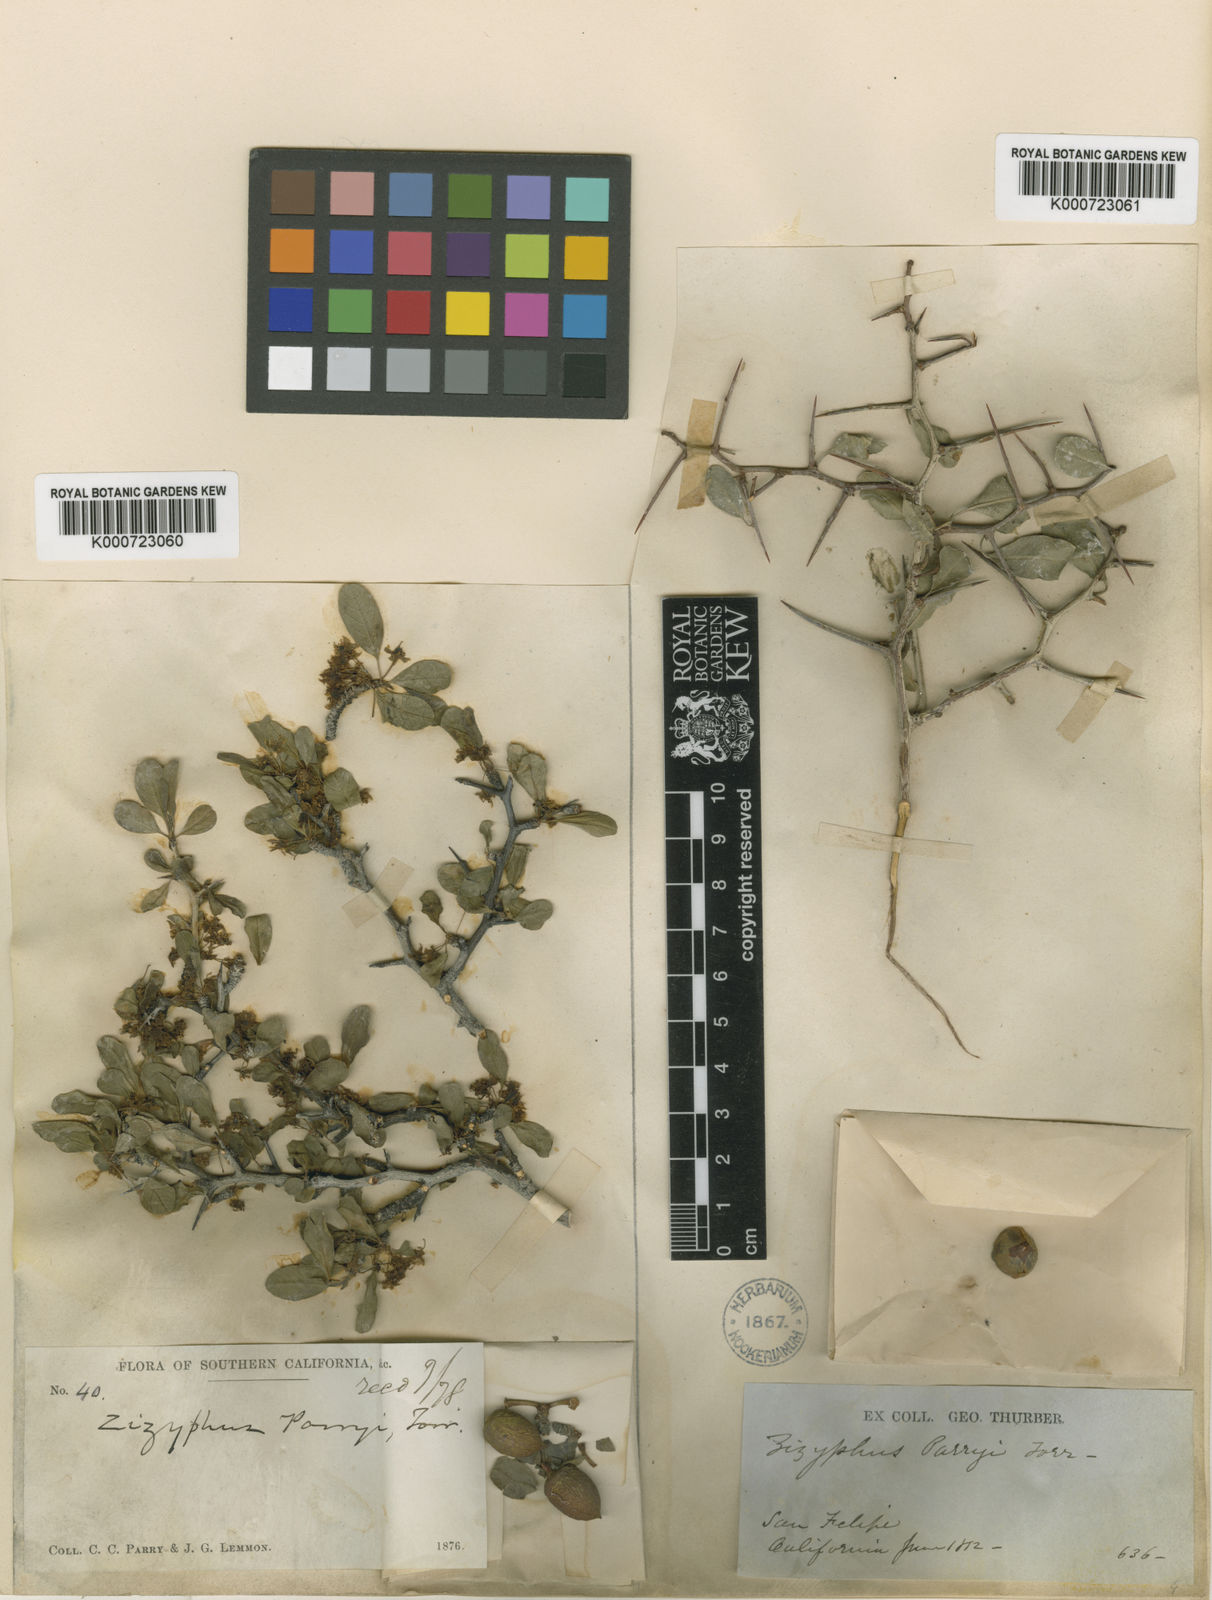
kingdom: Plantae
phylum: Tracheophyta
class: Magnoliopsida
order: Rosales
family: Rhamnaceae
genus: Pseudoziziphus
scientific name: Pseudoziziphus parryi
